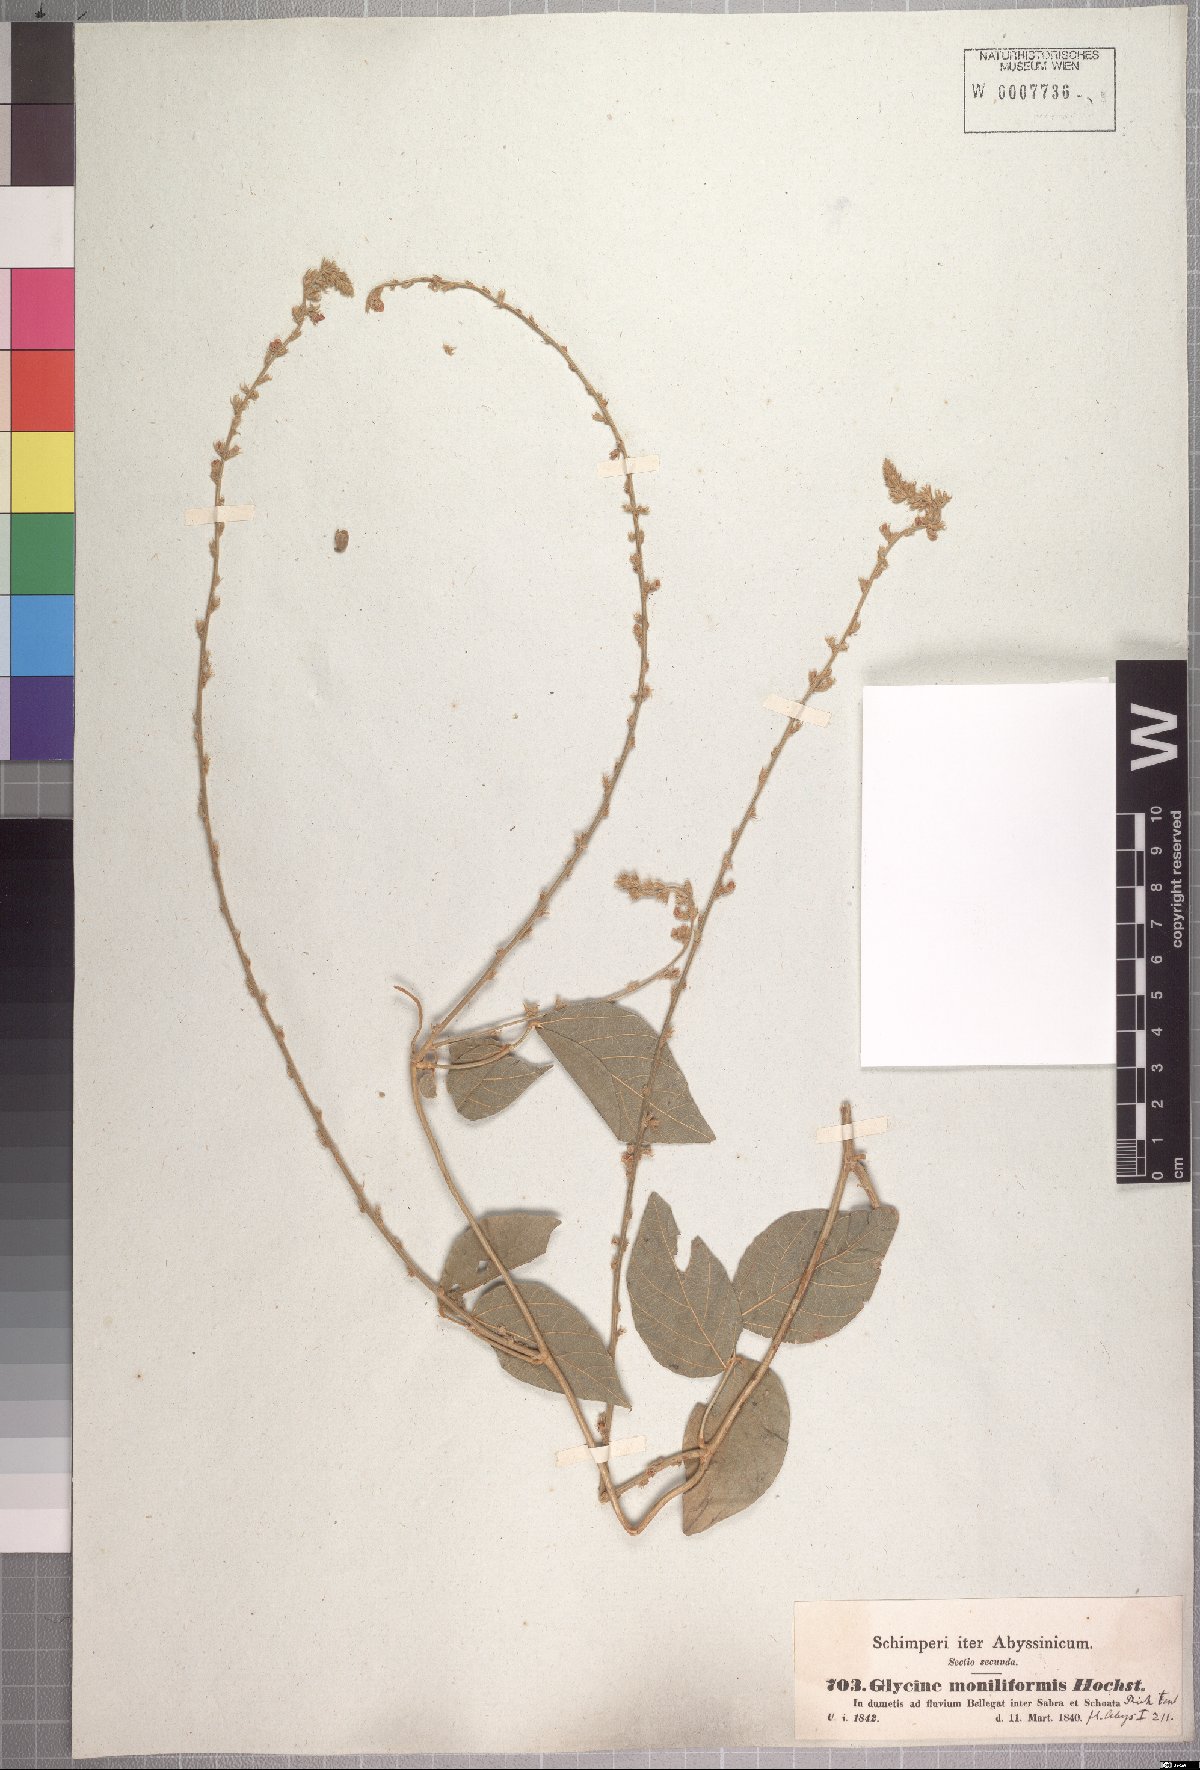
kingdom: Plantae
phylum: Tracheophyta
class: Magnoliopsida
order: Fabales
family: Fabaceae
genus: Neonotonia
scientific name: Neonotonia wightii
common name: Perennial soybean
